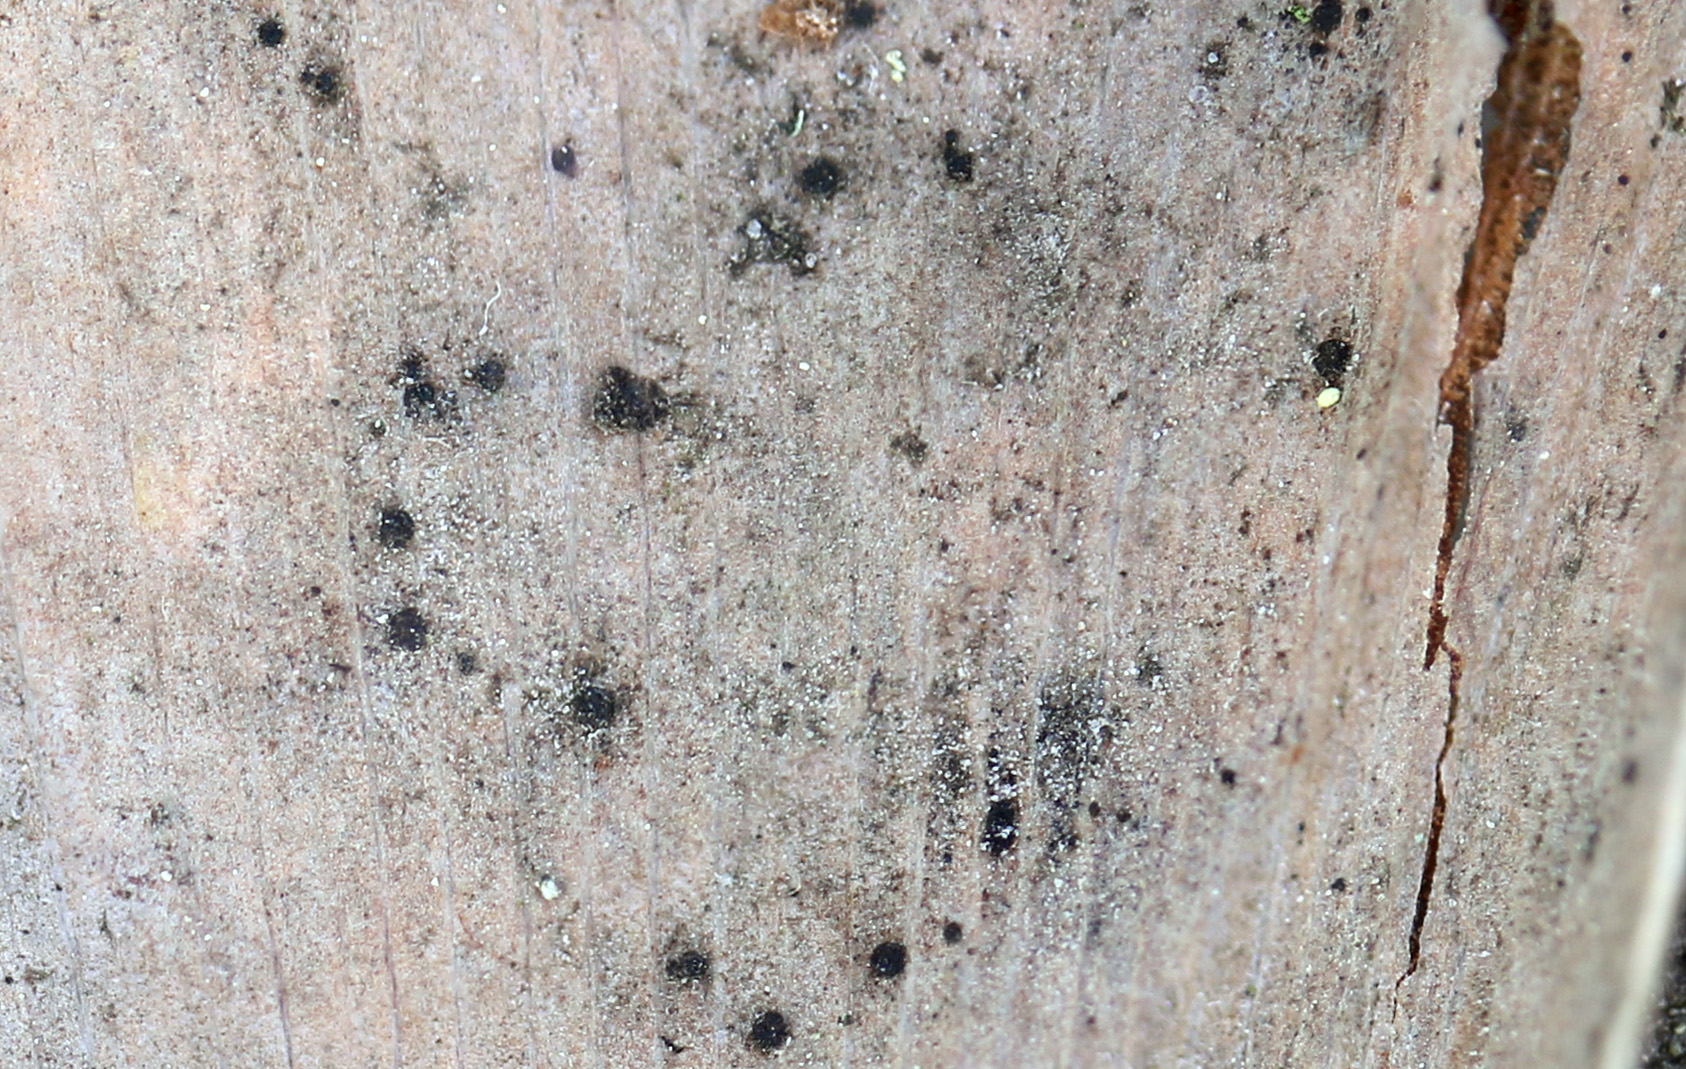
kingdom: Fungi
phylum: Basidiomycota
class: Wallemiomycetes
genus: Bartheletia
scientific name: Bartheletia paradoxa
